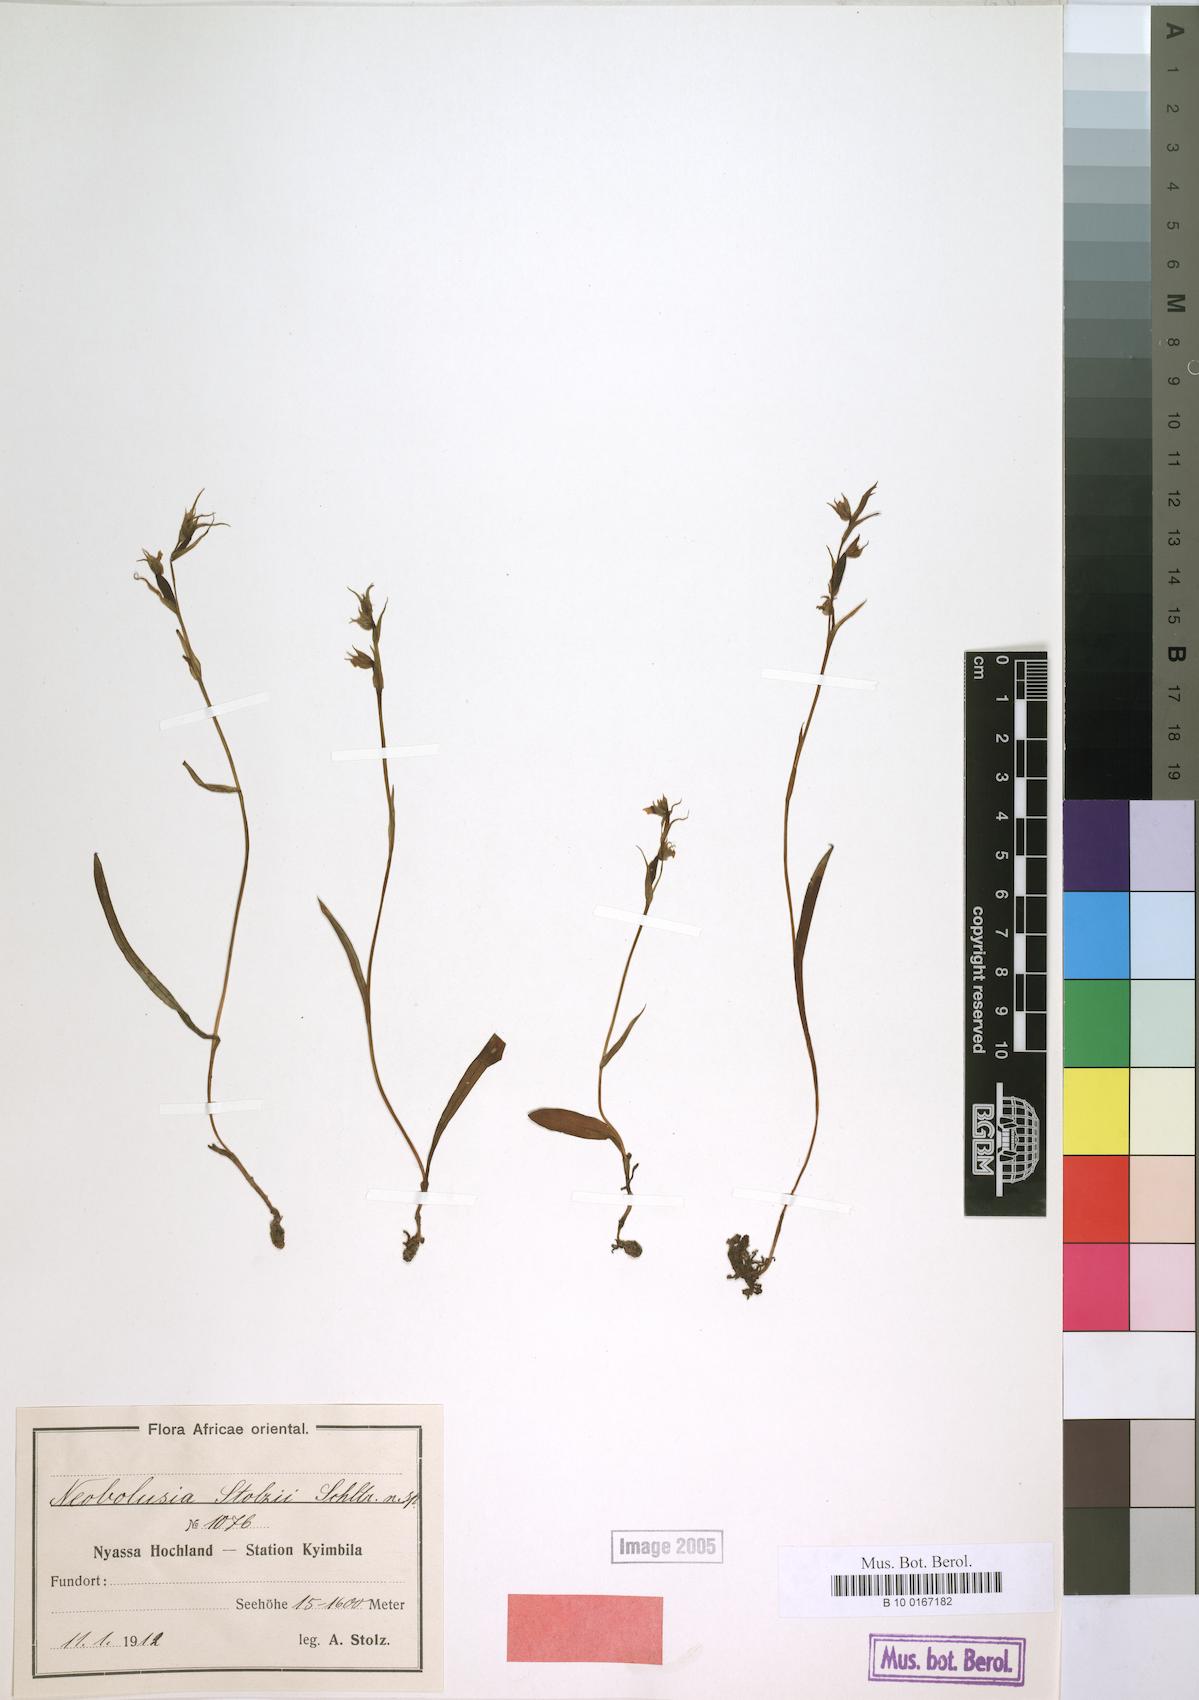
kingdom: Plantae
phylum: Tracheophyta
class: Liliopsida
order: Asparagales
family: Orchidaceae
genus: Neobolusia
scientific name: Neobolusia stolzii
